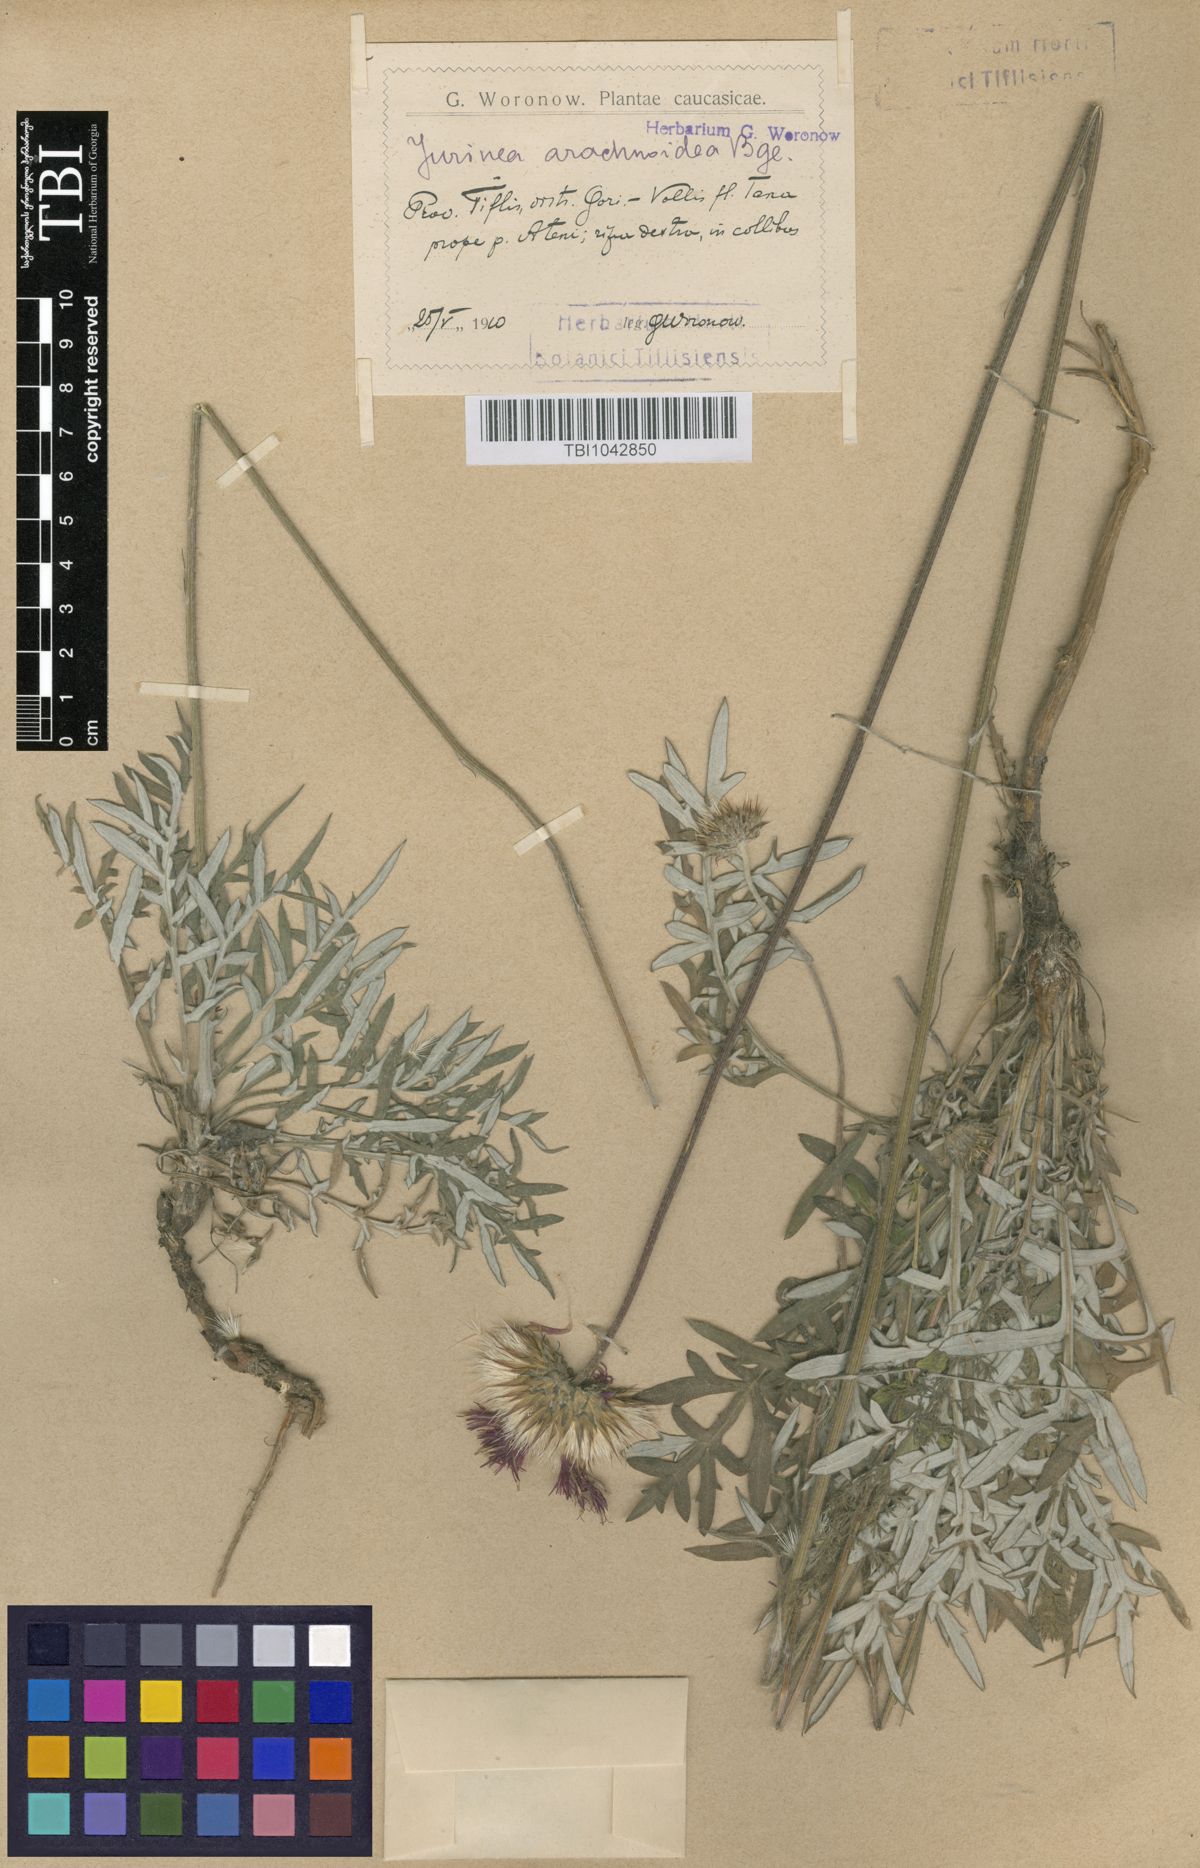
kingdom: Plantae
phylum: Tracheophyta
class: Magnoliopsida
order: Asterales
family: Asteraceae
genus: Jurinea
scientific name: Jurinea blanda
